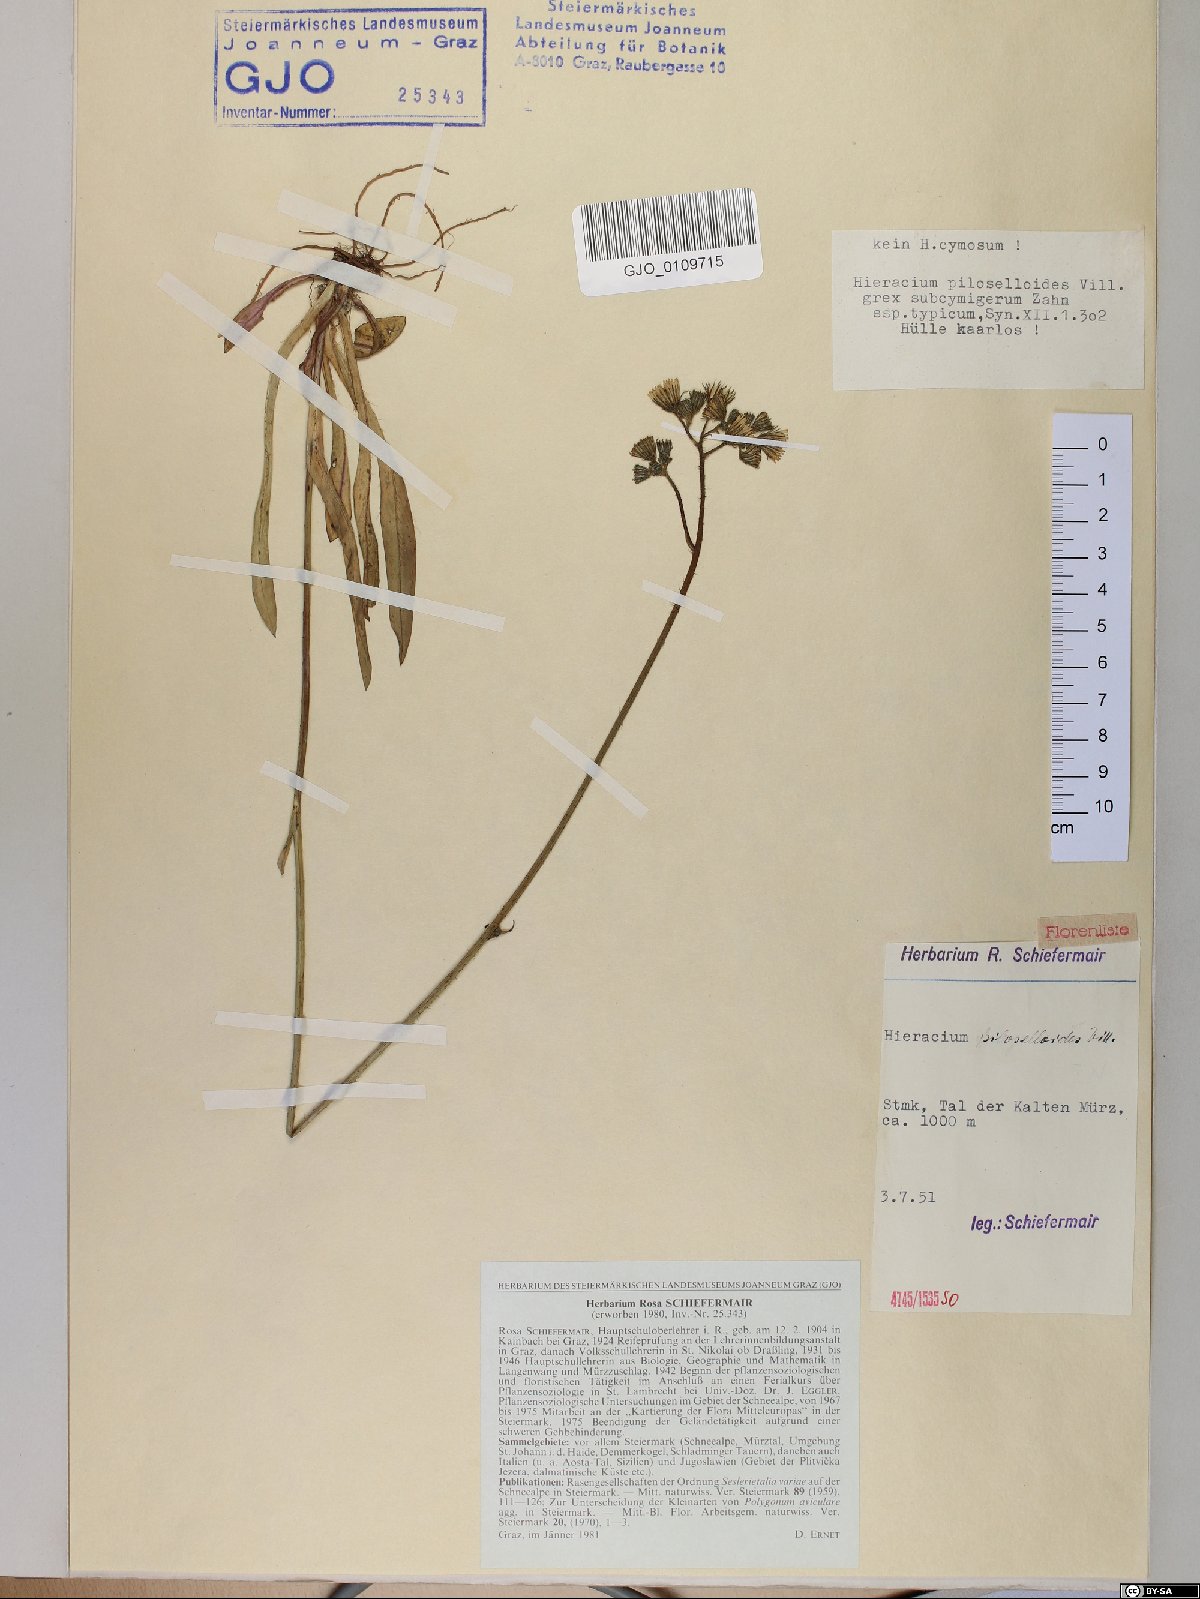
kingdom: Plantae
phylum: Tracheophyta
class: Magnoliopsida
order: Asterales
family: Asteraceae
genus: Pilosella
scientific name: Pilosella piloselloides
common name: Glaucous king-devil
